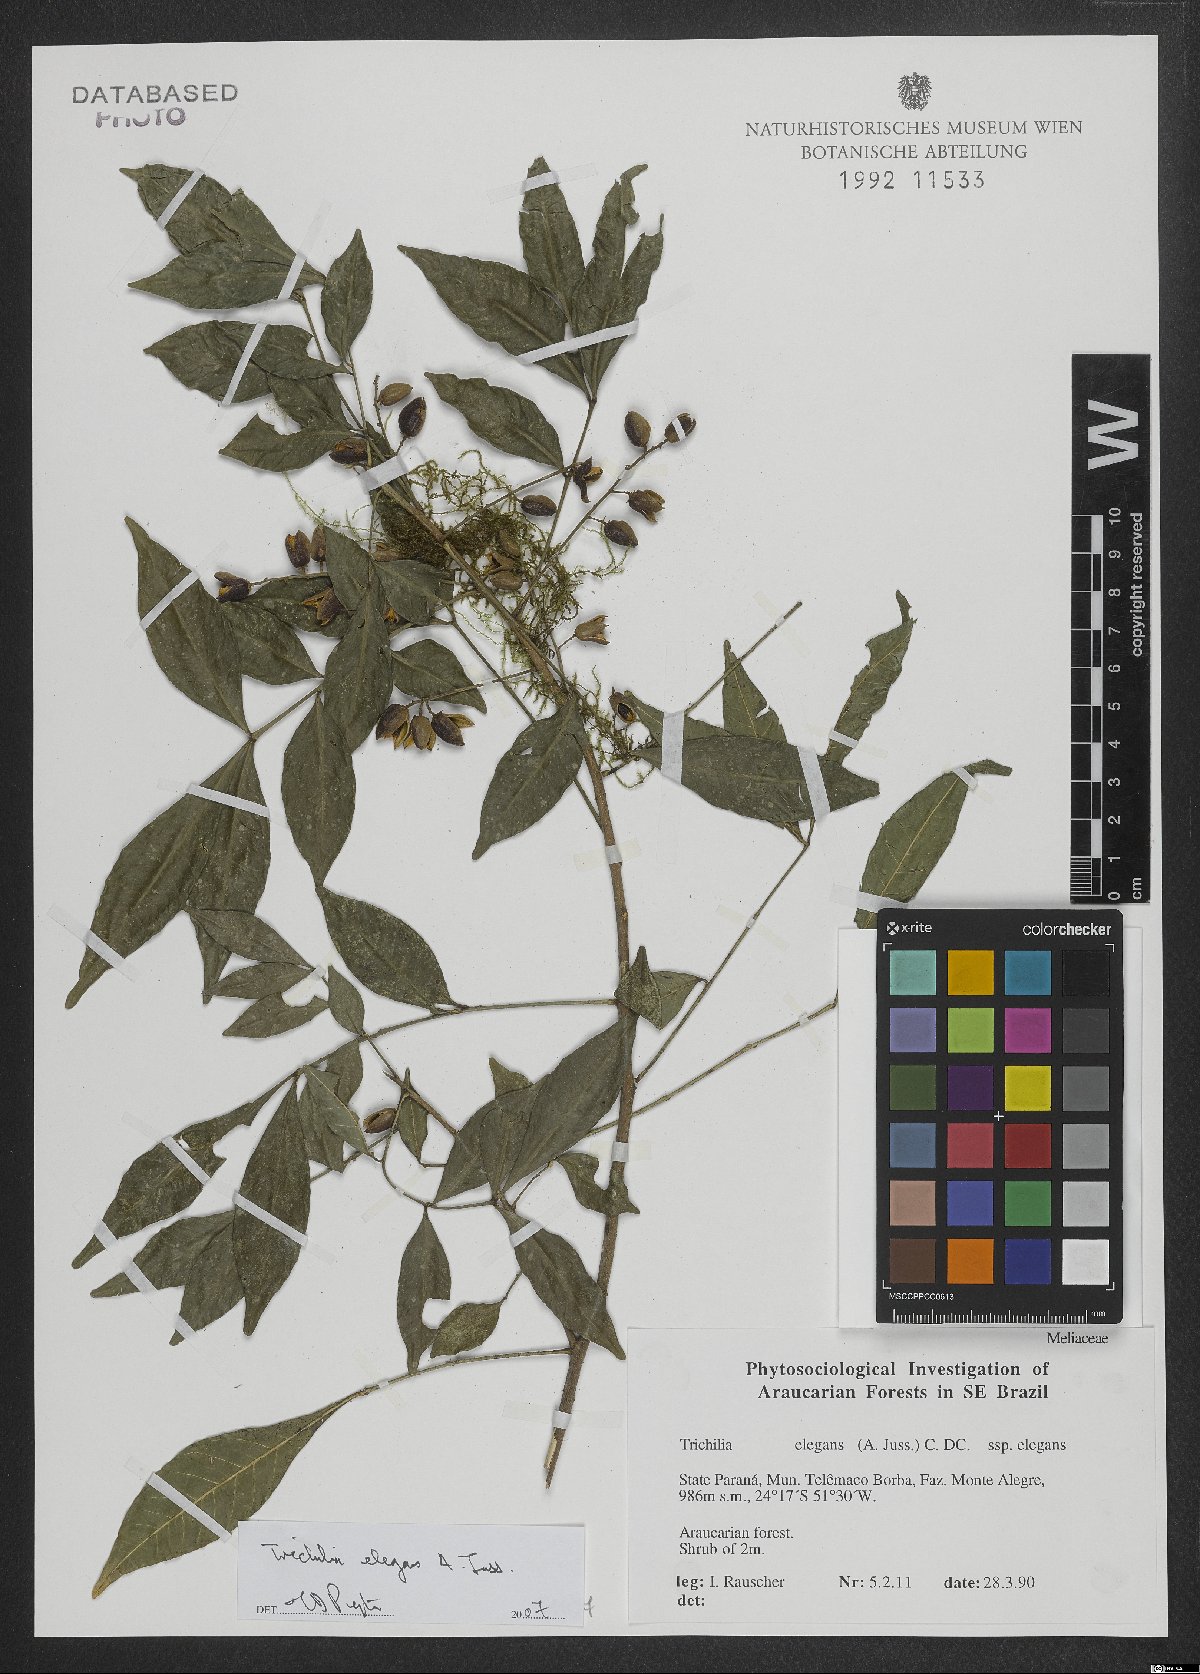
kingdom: Plantae
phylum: Tracheophyta
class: Magnoliopsida
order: Sapindales
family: Meliaceae
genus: Trichilia
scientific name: Trichilia elegans
